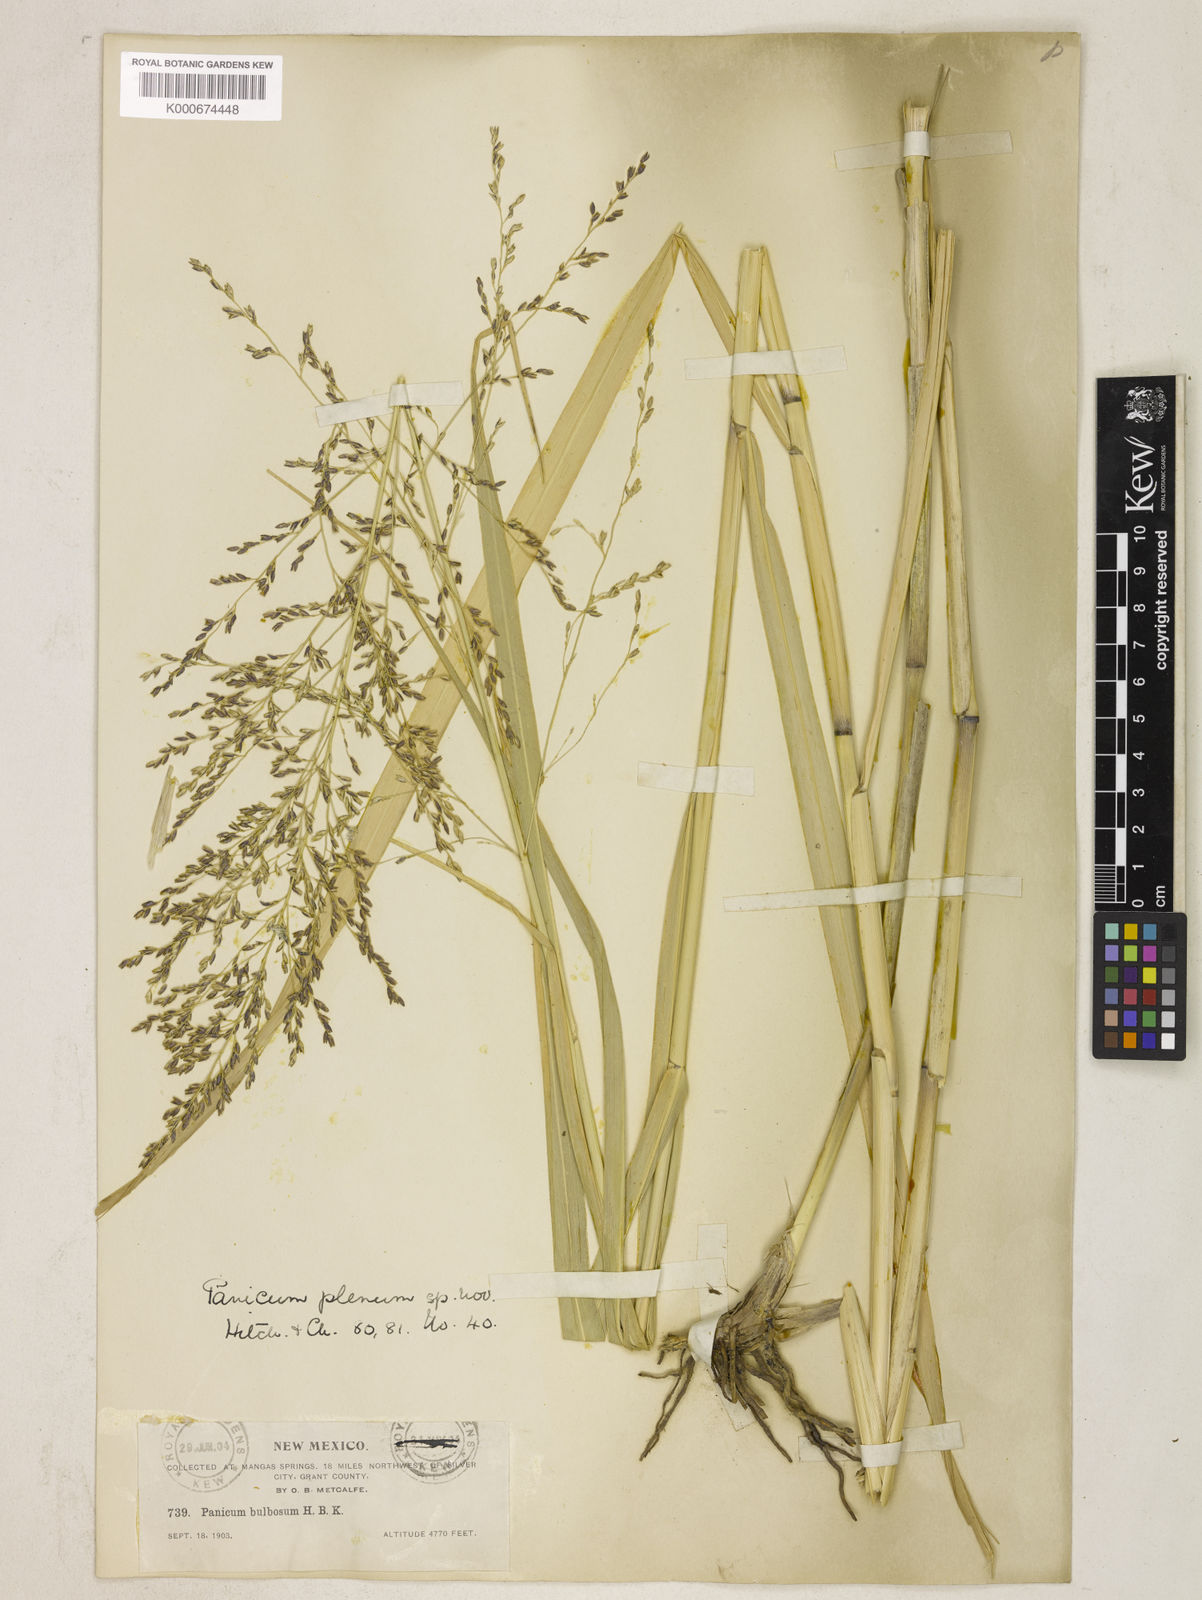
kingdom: Plantae
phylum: Tracheophyta
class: Liliopsida
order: Poales
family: Poaceae
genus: Panicum
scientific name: Panicum plenum
